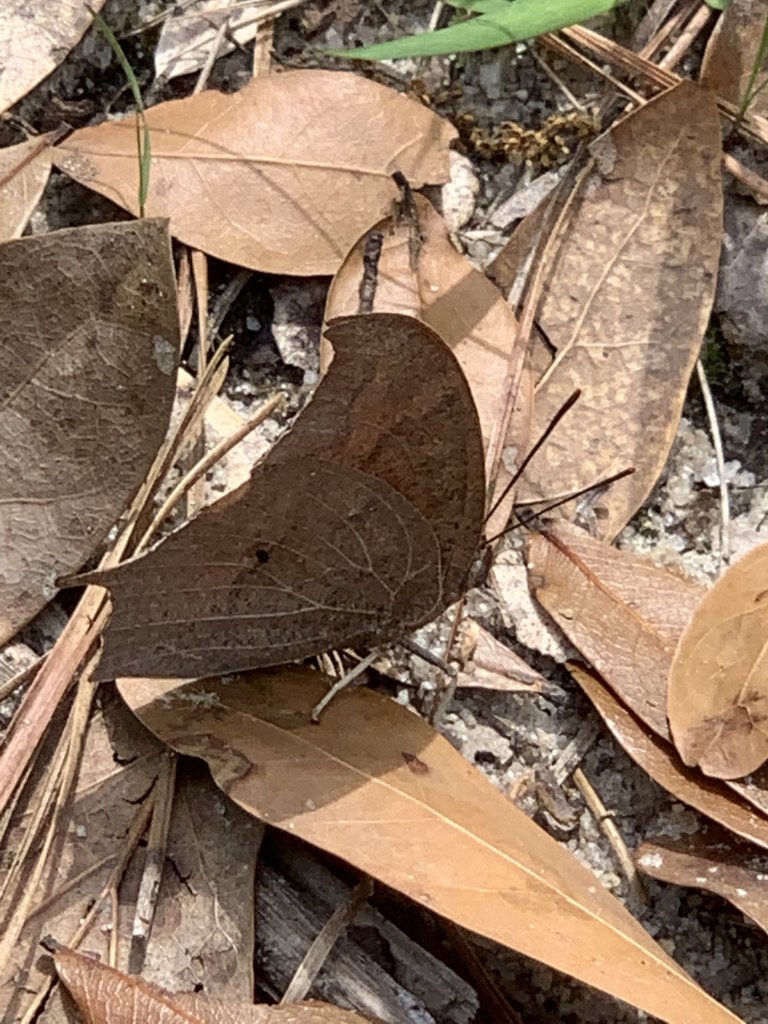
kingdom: Animalia
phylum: Arthropoda
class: Insecta
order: Lepidoptera
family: Nymphalidae
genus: Anaea
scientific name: Anaea andria
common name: Goatweed Leafwing
